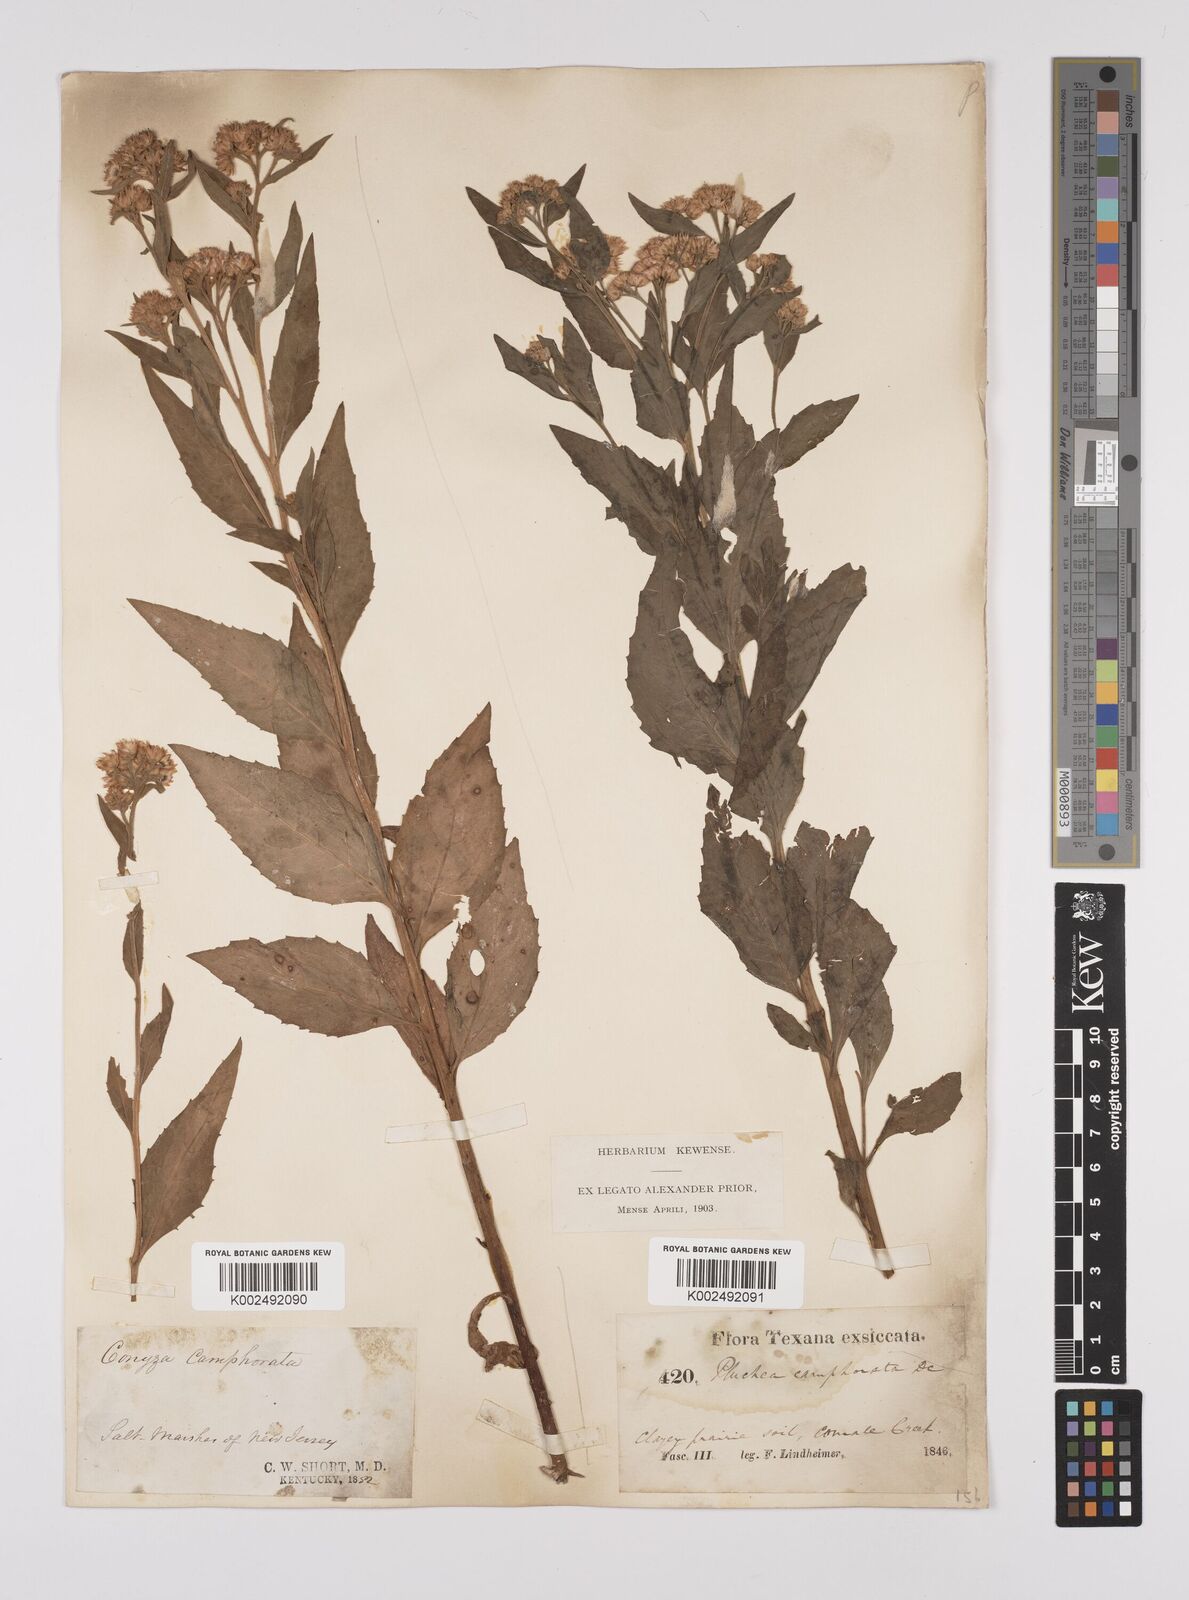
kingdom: Plantae
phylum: Tracheophyta
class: Magnoliopsida
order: Asterales
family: Asteraceae
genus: Pluchea
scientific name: Pluchea camphorata
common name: Camphor pluchea
